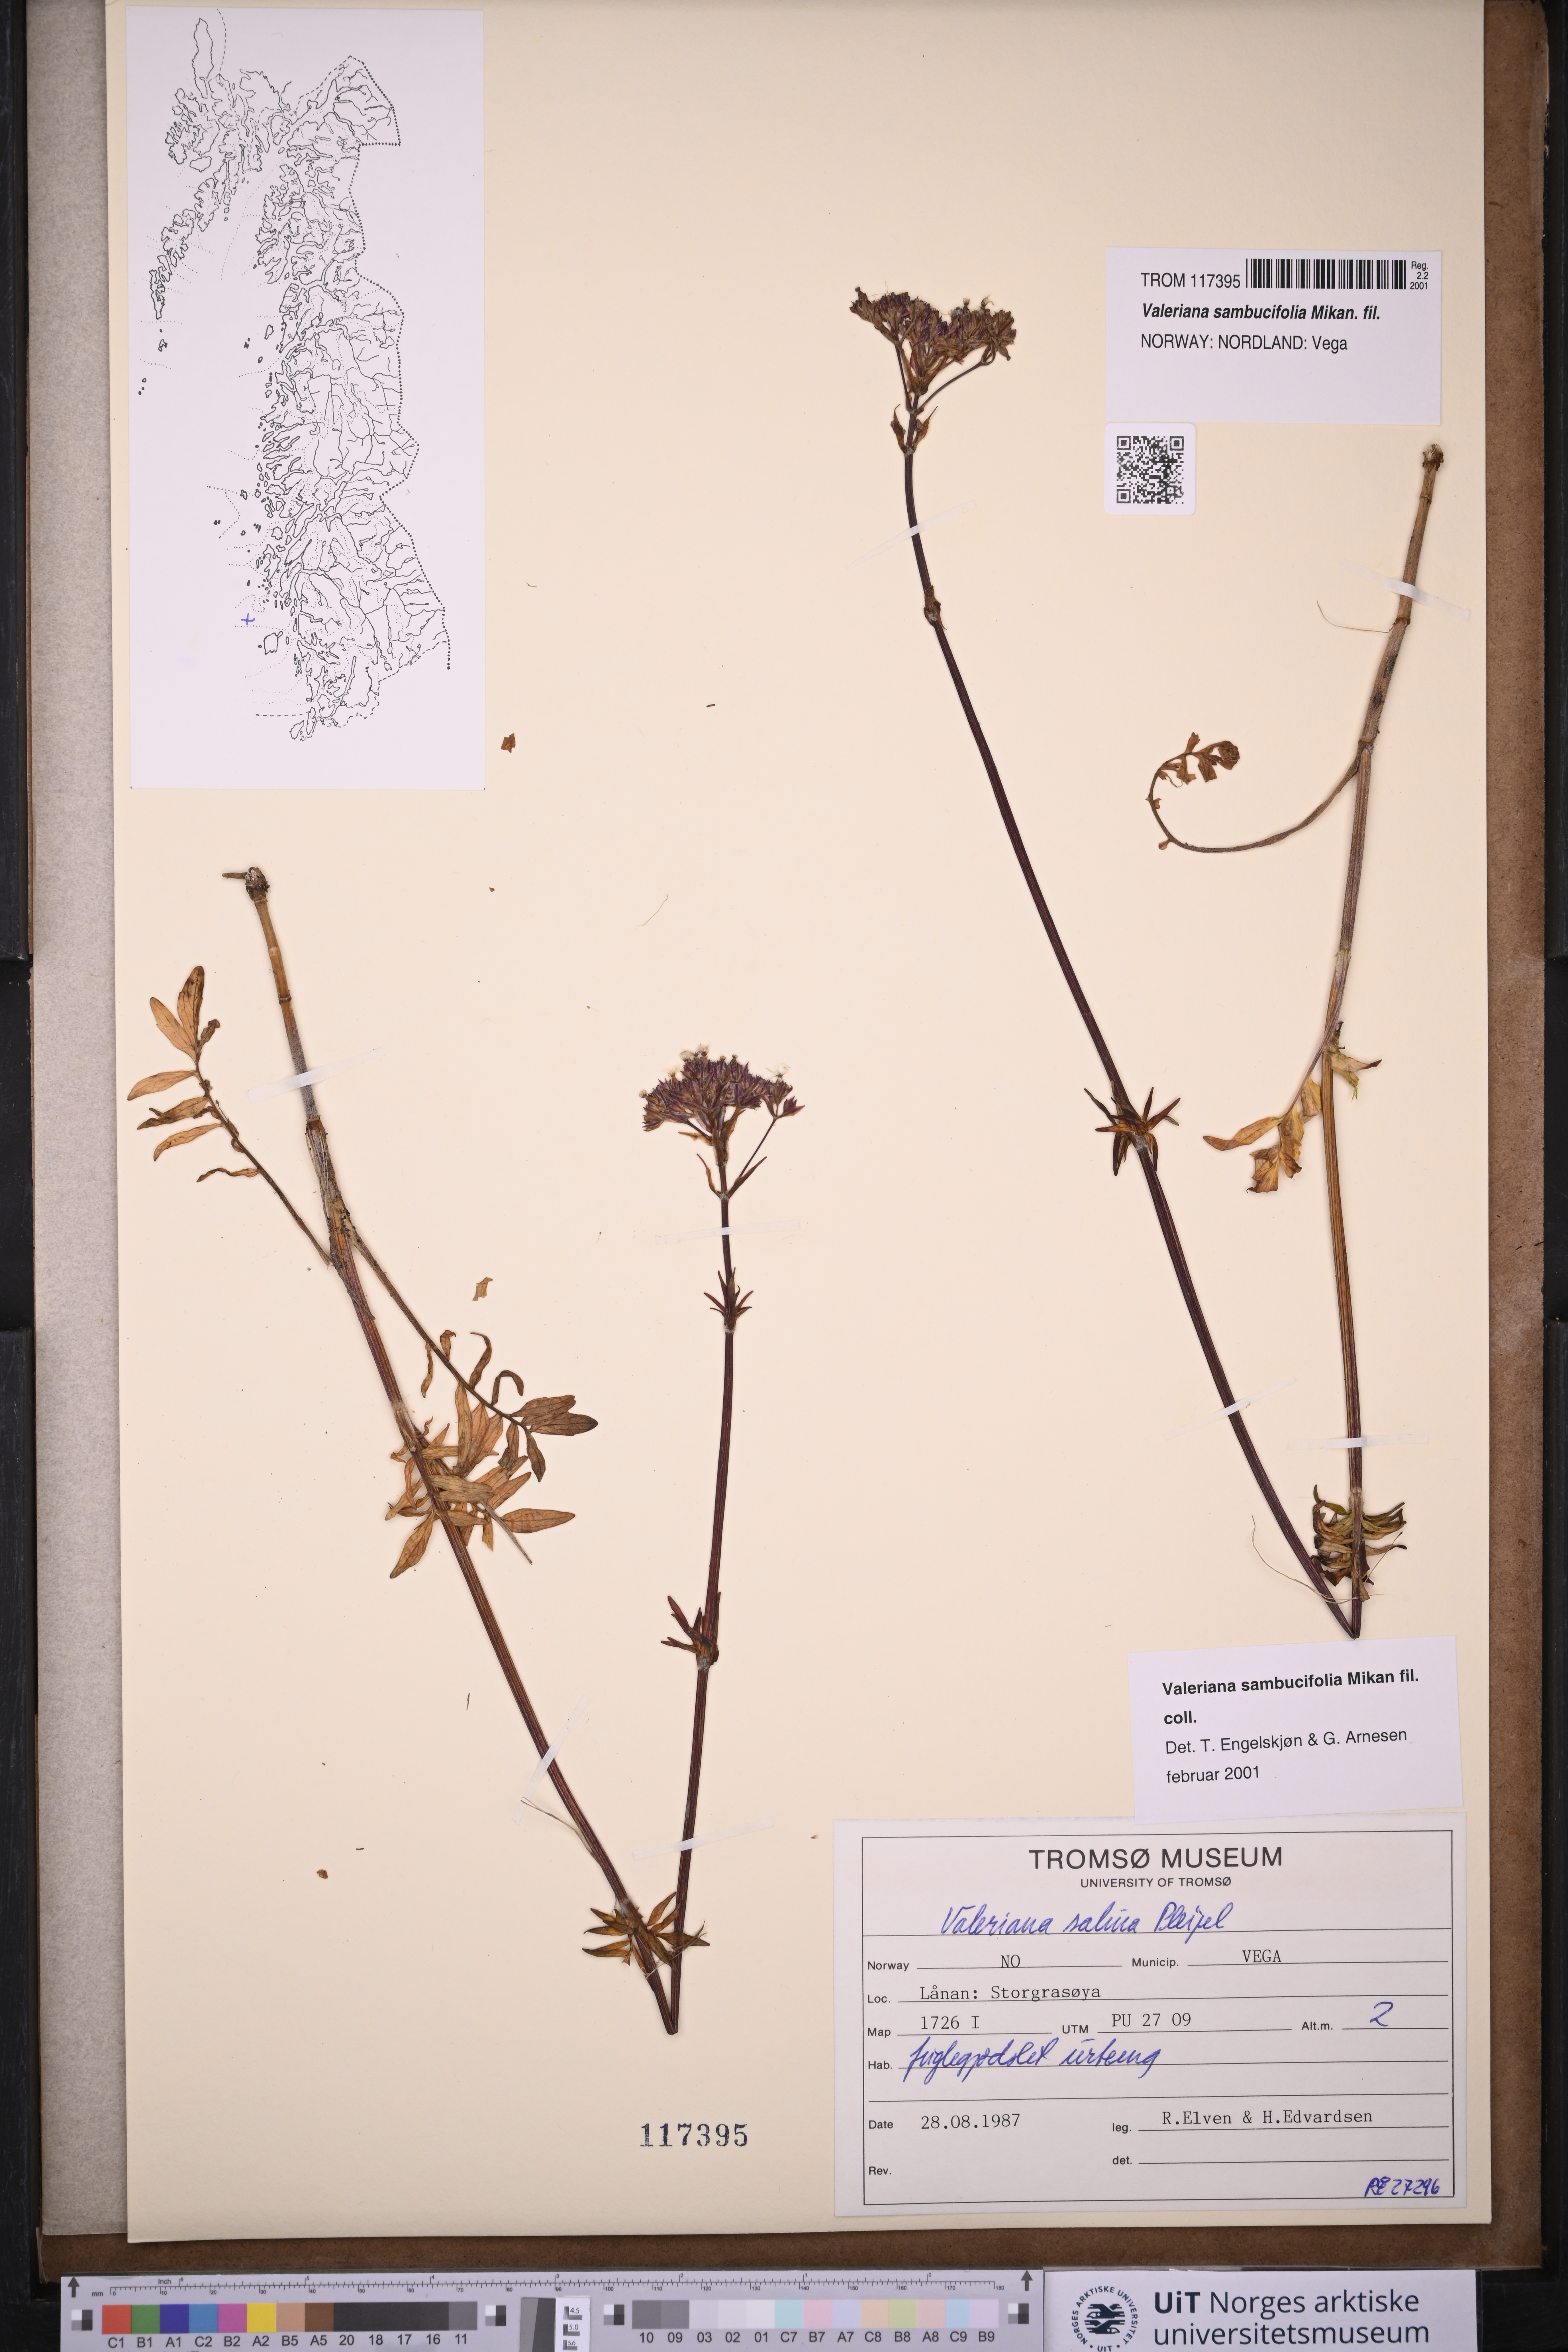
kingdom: Plantae
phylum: Tracheophyta
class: Magnoliopsida
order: Dipsacales
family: Caprifoliaceae
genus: Valeriana
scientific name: Valeriana excelsa
